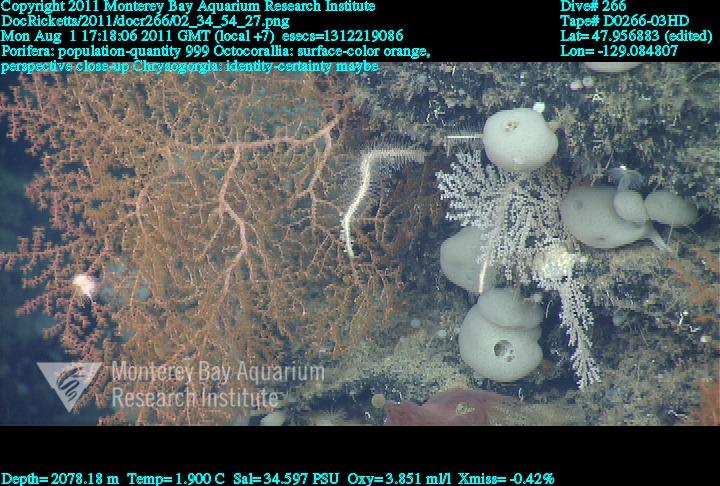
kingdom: Animalia
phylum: Porifera
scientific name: Porifera
